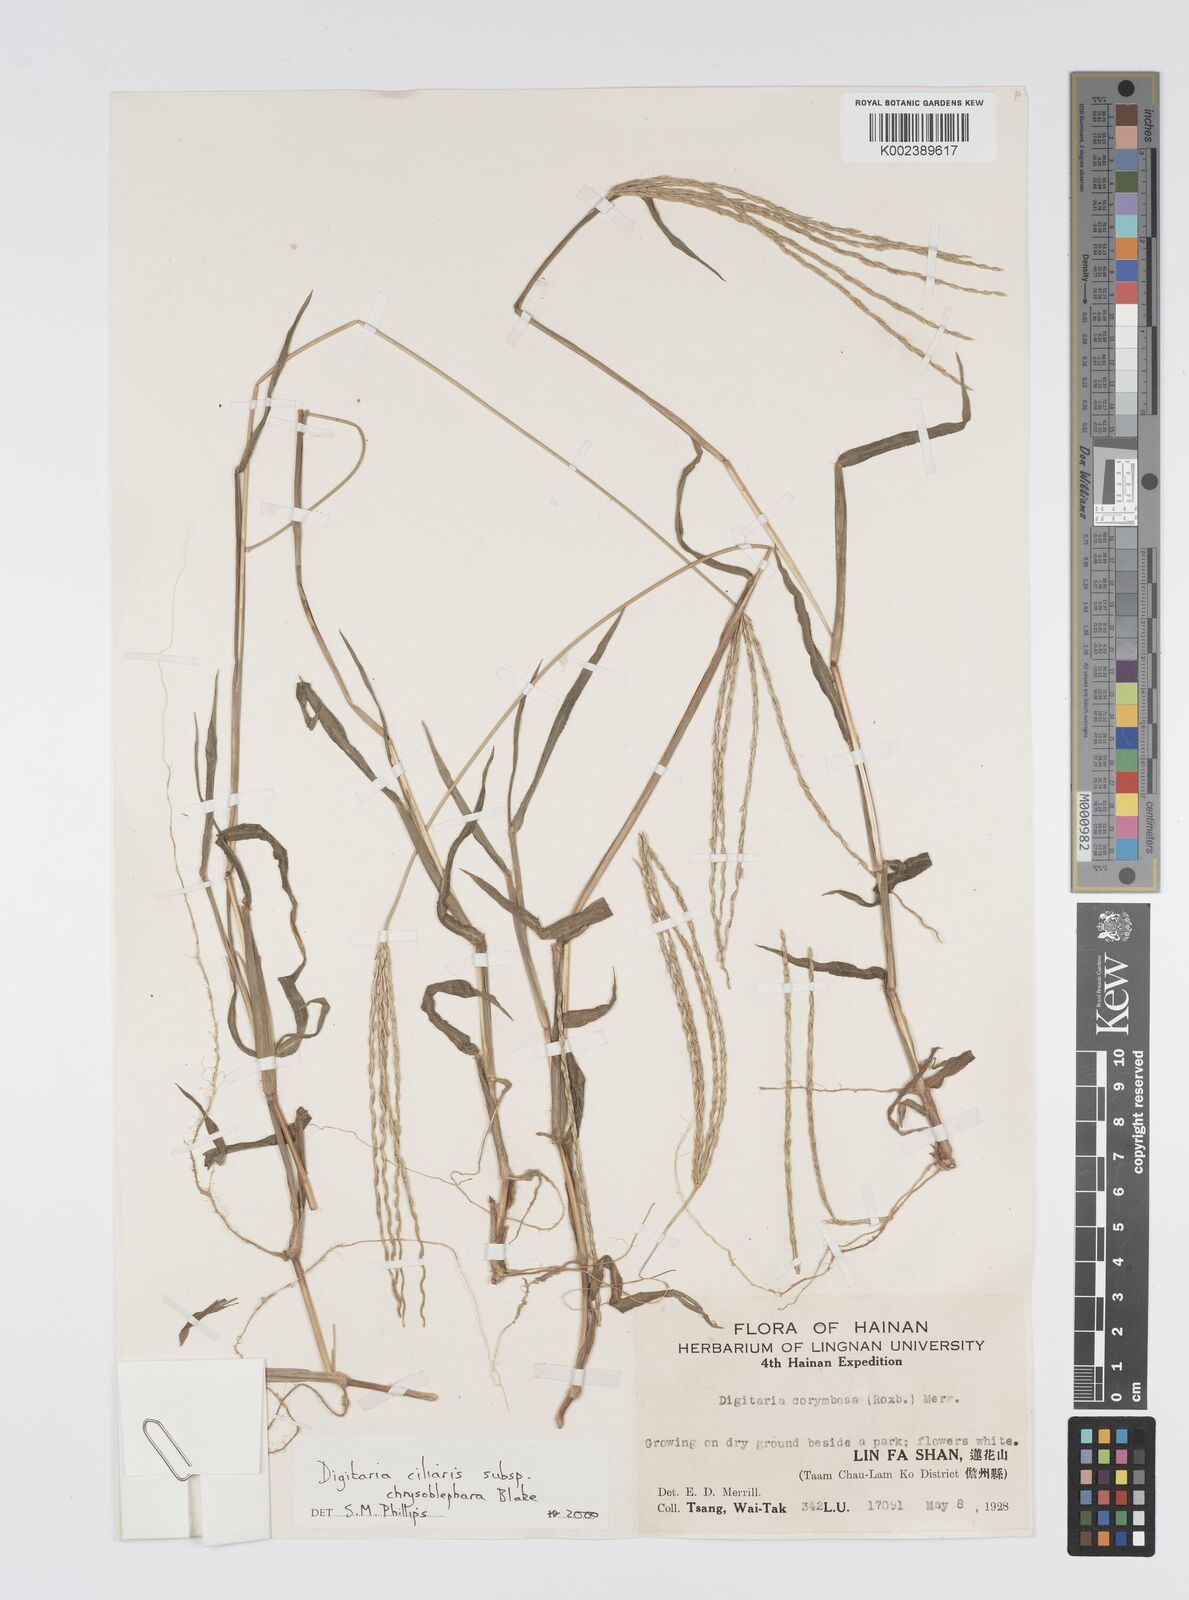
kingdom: Plantae
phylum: Tracheophyta
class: Liliopsida
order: Poales
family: Poaceae
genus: Digitaria
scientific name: Digitaria ciliaris
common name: Tropical finger-grass
